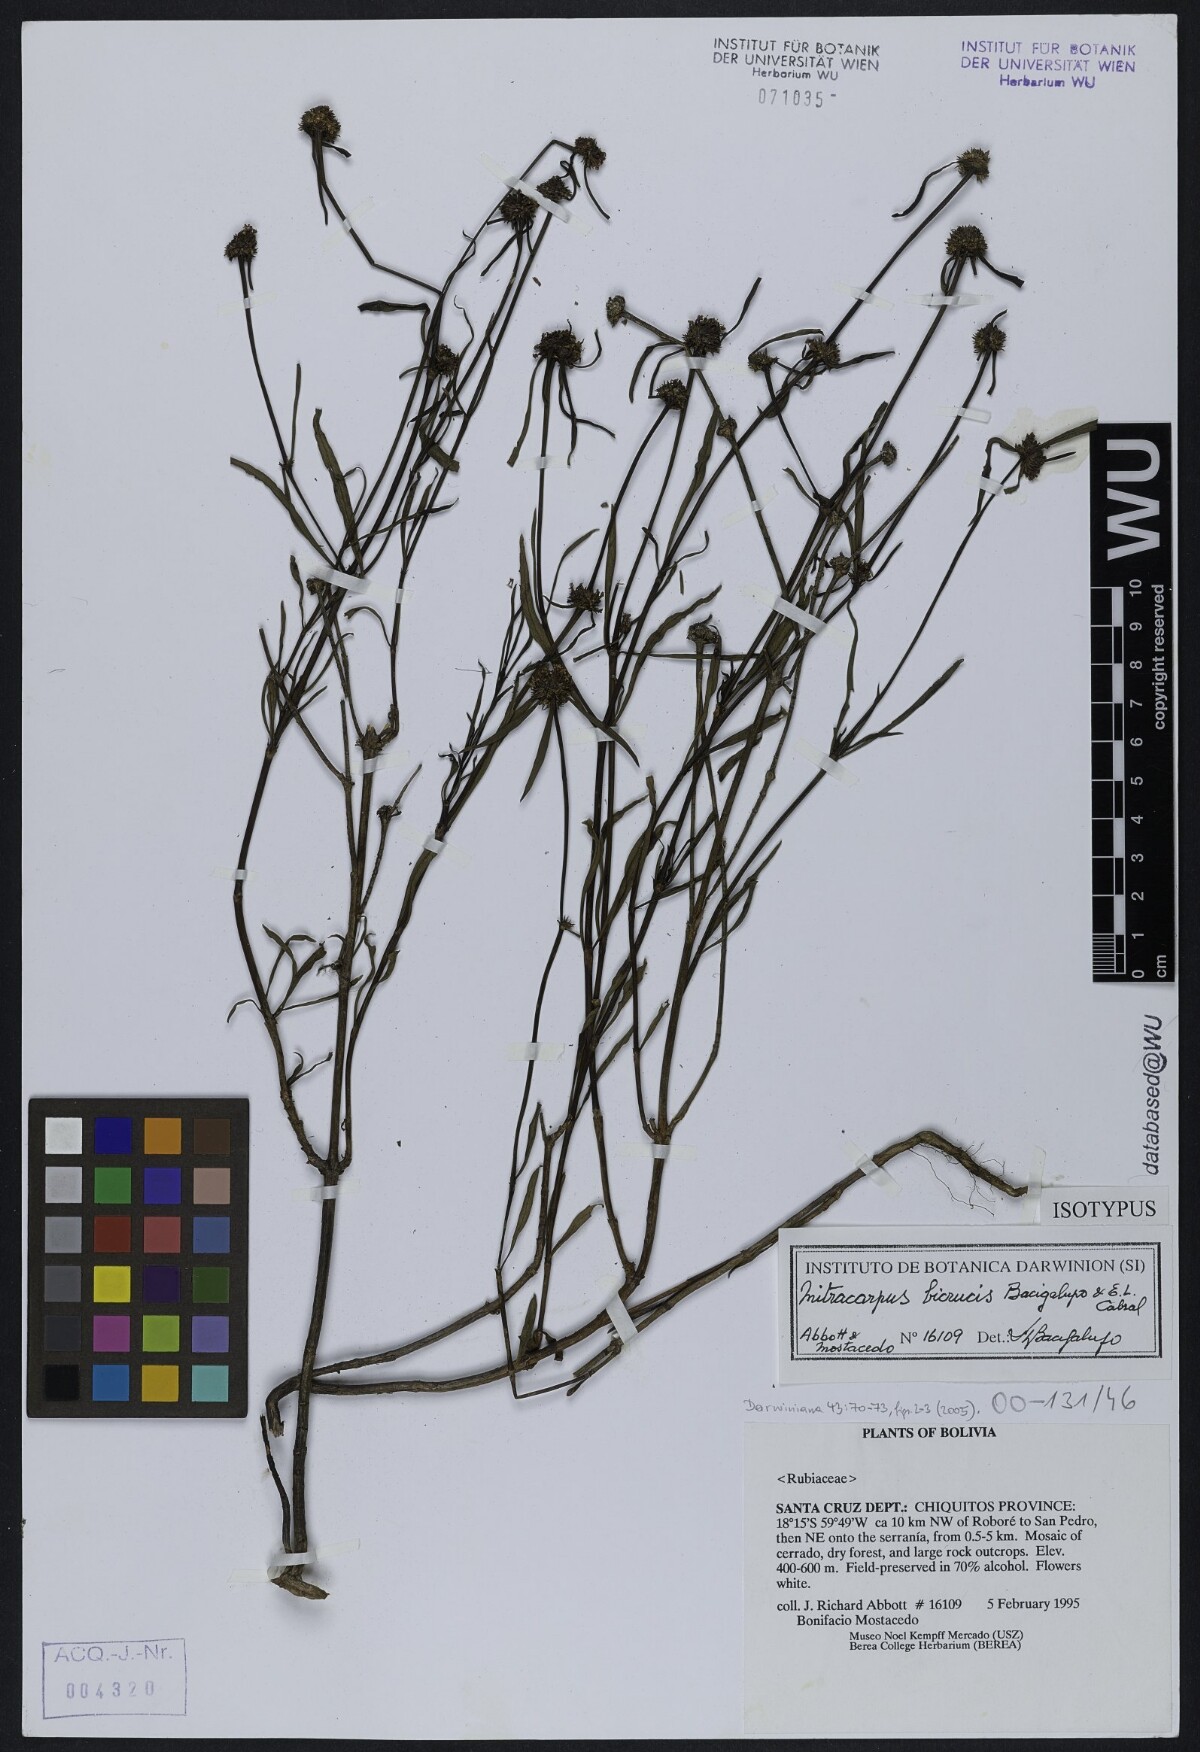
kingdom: Plantae
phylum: Tracheophyta
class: Magnoliopsida
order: Gentianales
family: Rubiaceae
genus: Mitracarpus
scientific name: Mitracarpus bicrucis
